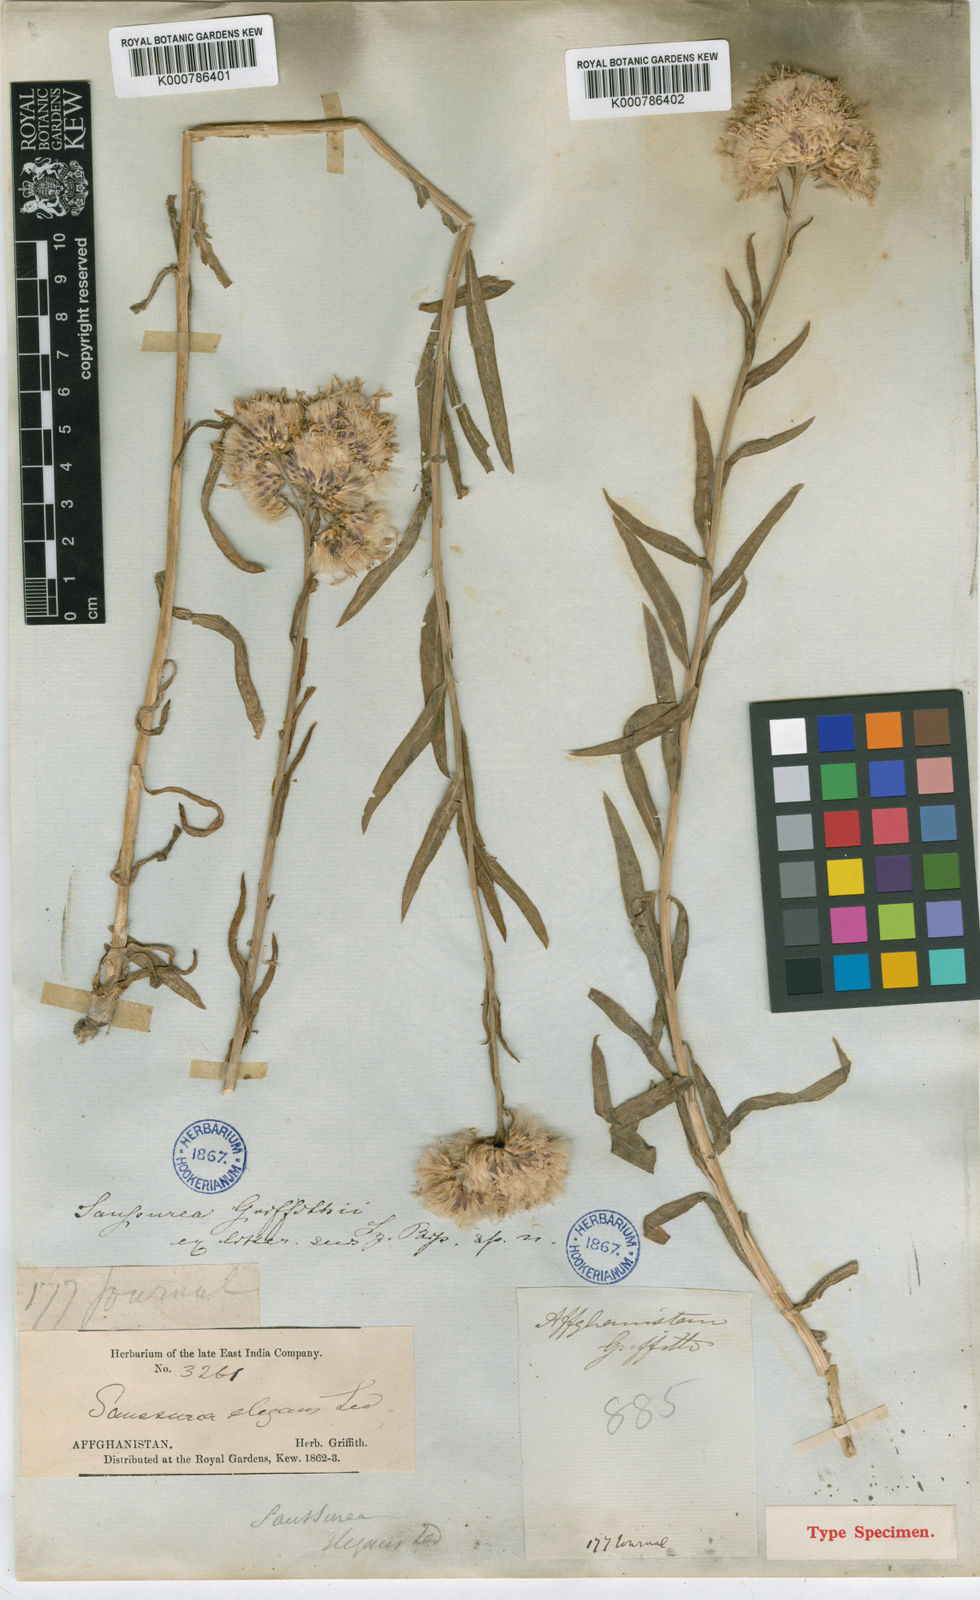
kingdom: Plantae
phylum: Tracheophyta
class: Magnoliopsida
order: Asterales
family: Asteraceae
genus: Saussurea
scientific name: Saussurea griffithii
